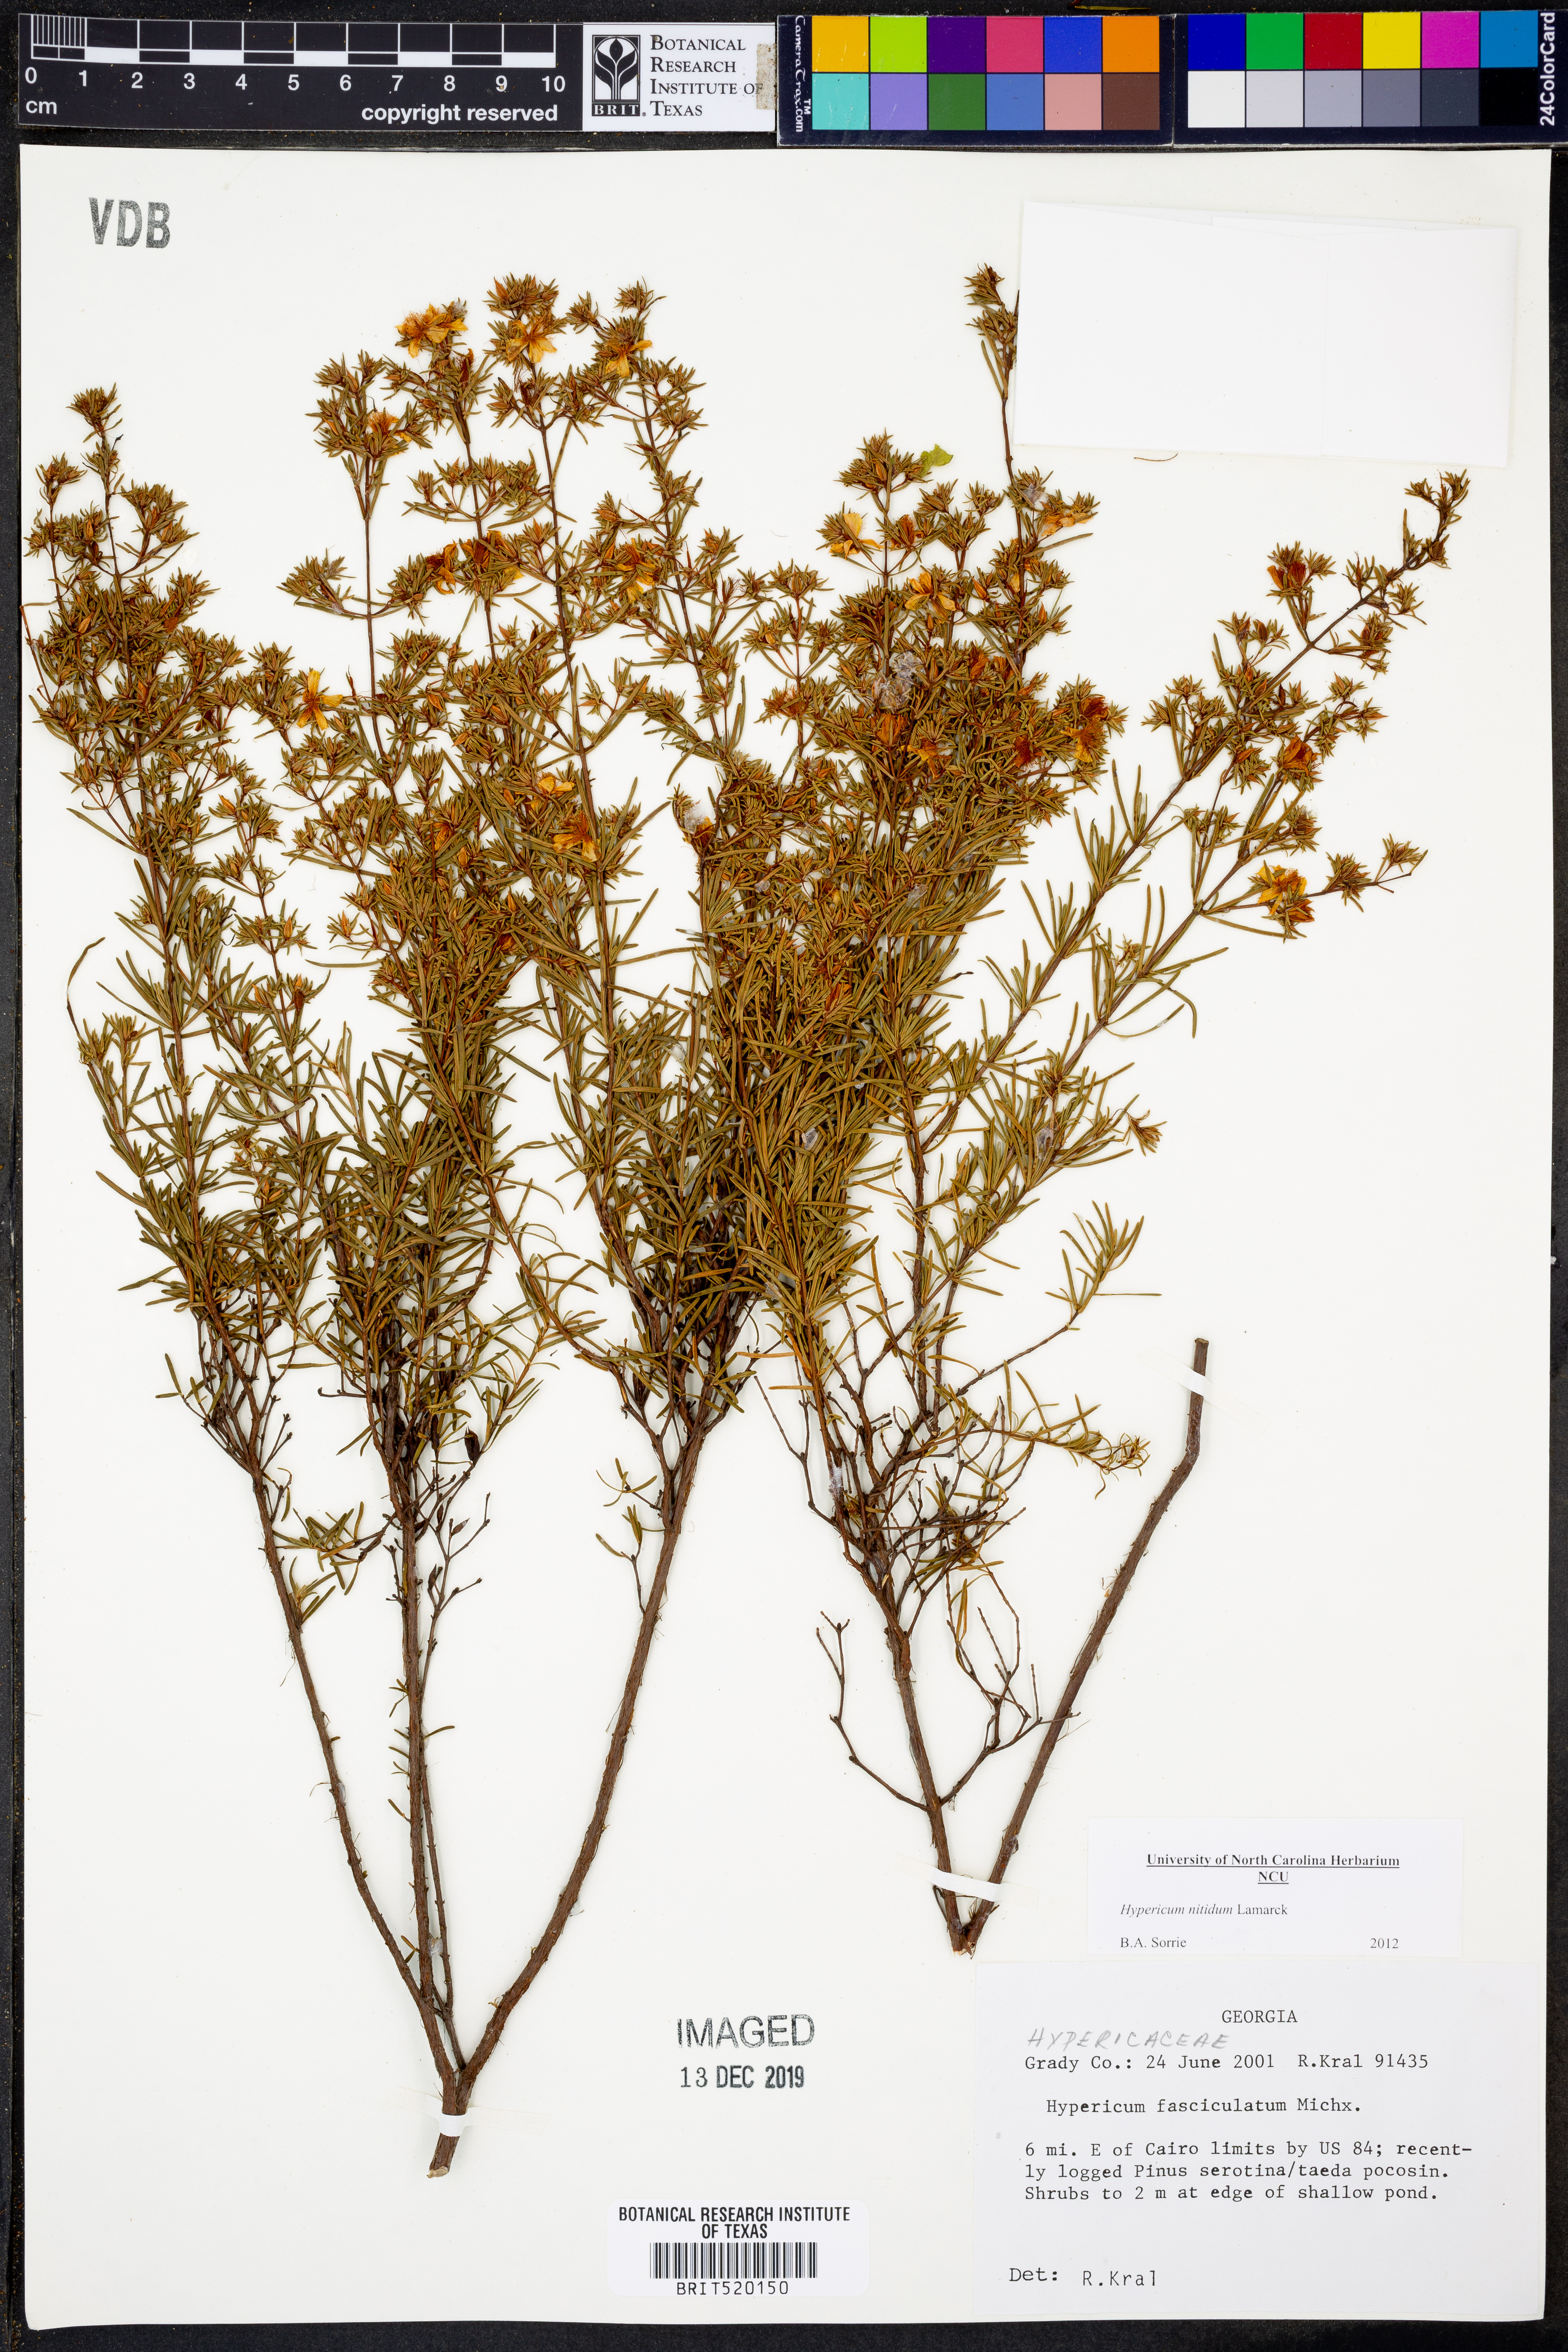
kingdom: Plantae
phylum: Tracheophyta
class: Magnoliopsida
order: Malpighiales
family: Hypericaceae
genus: Hypericum
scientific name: Hypericum nitidum
